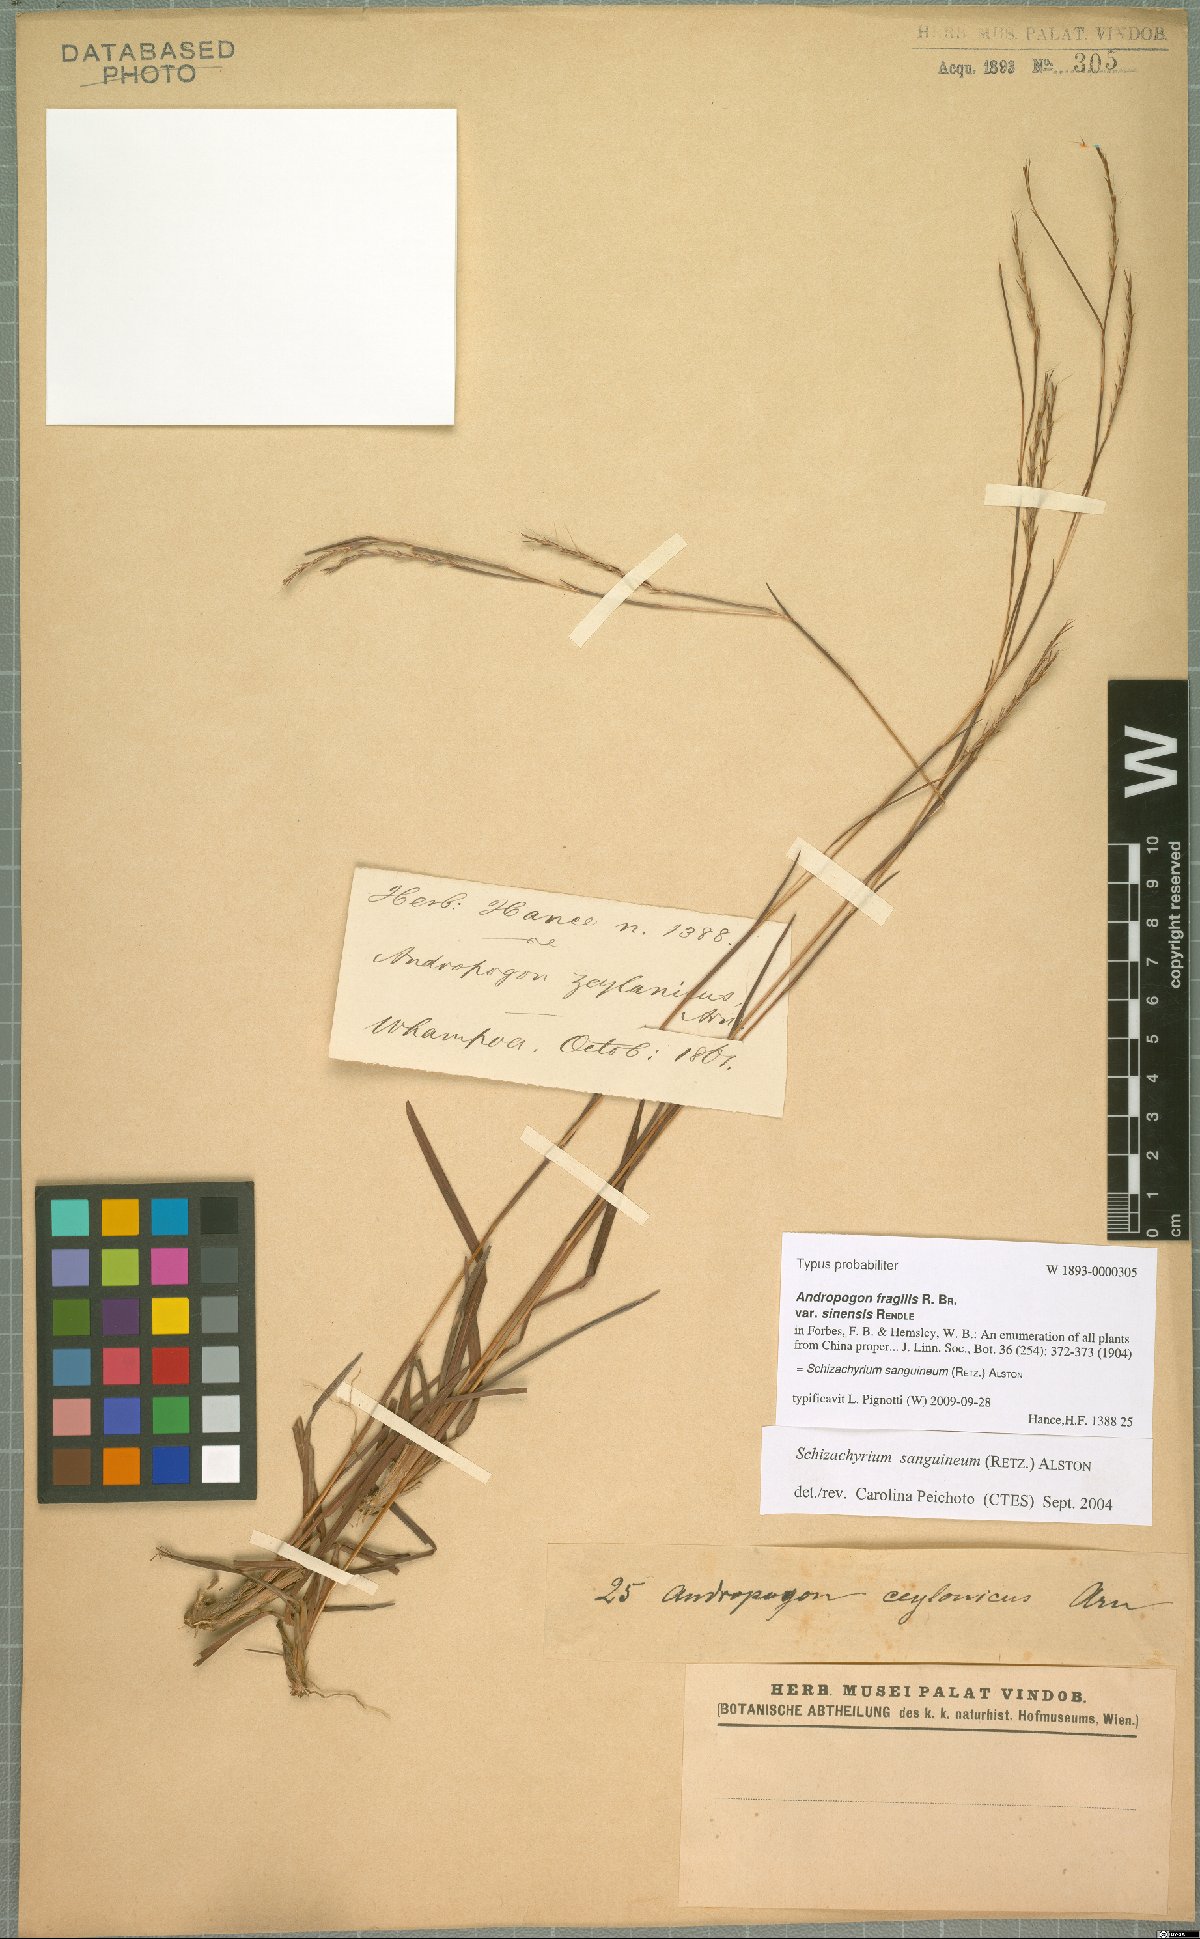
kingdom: Plantae
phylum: Tracheophyta
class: Liliopsida
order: Poales
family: Poaceae
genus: Schizachyrium
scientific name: Schizachyrium sanguineum
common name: Crimson bluestem
